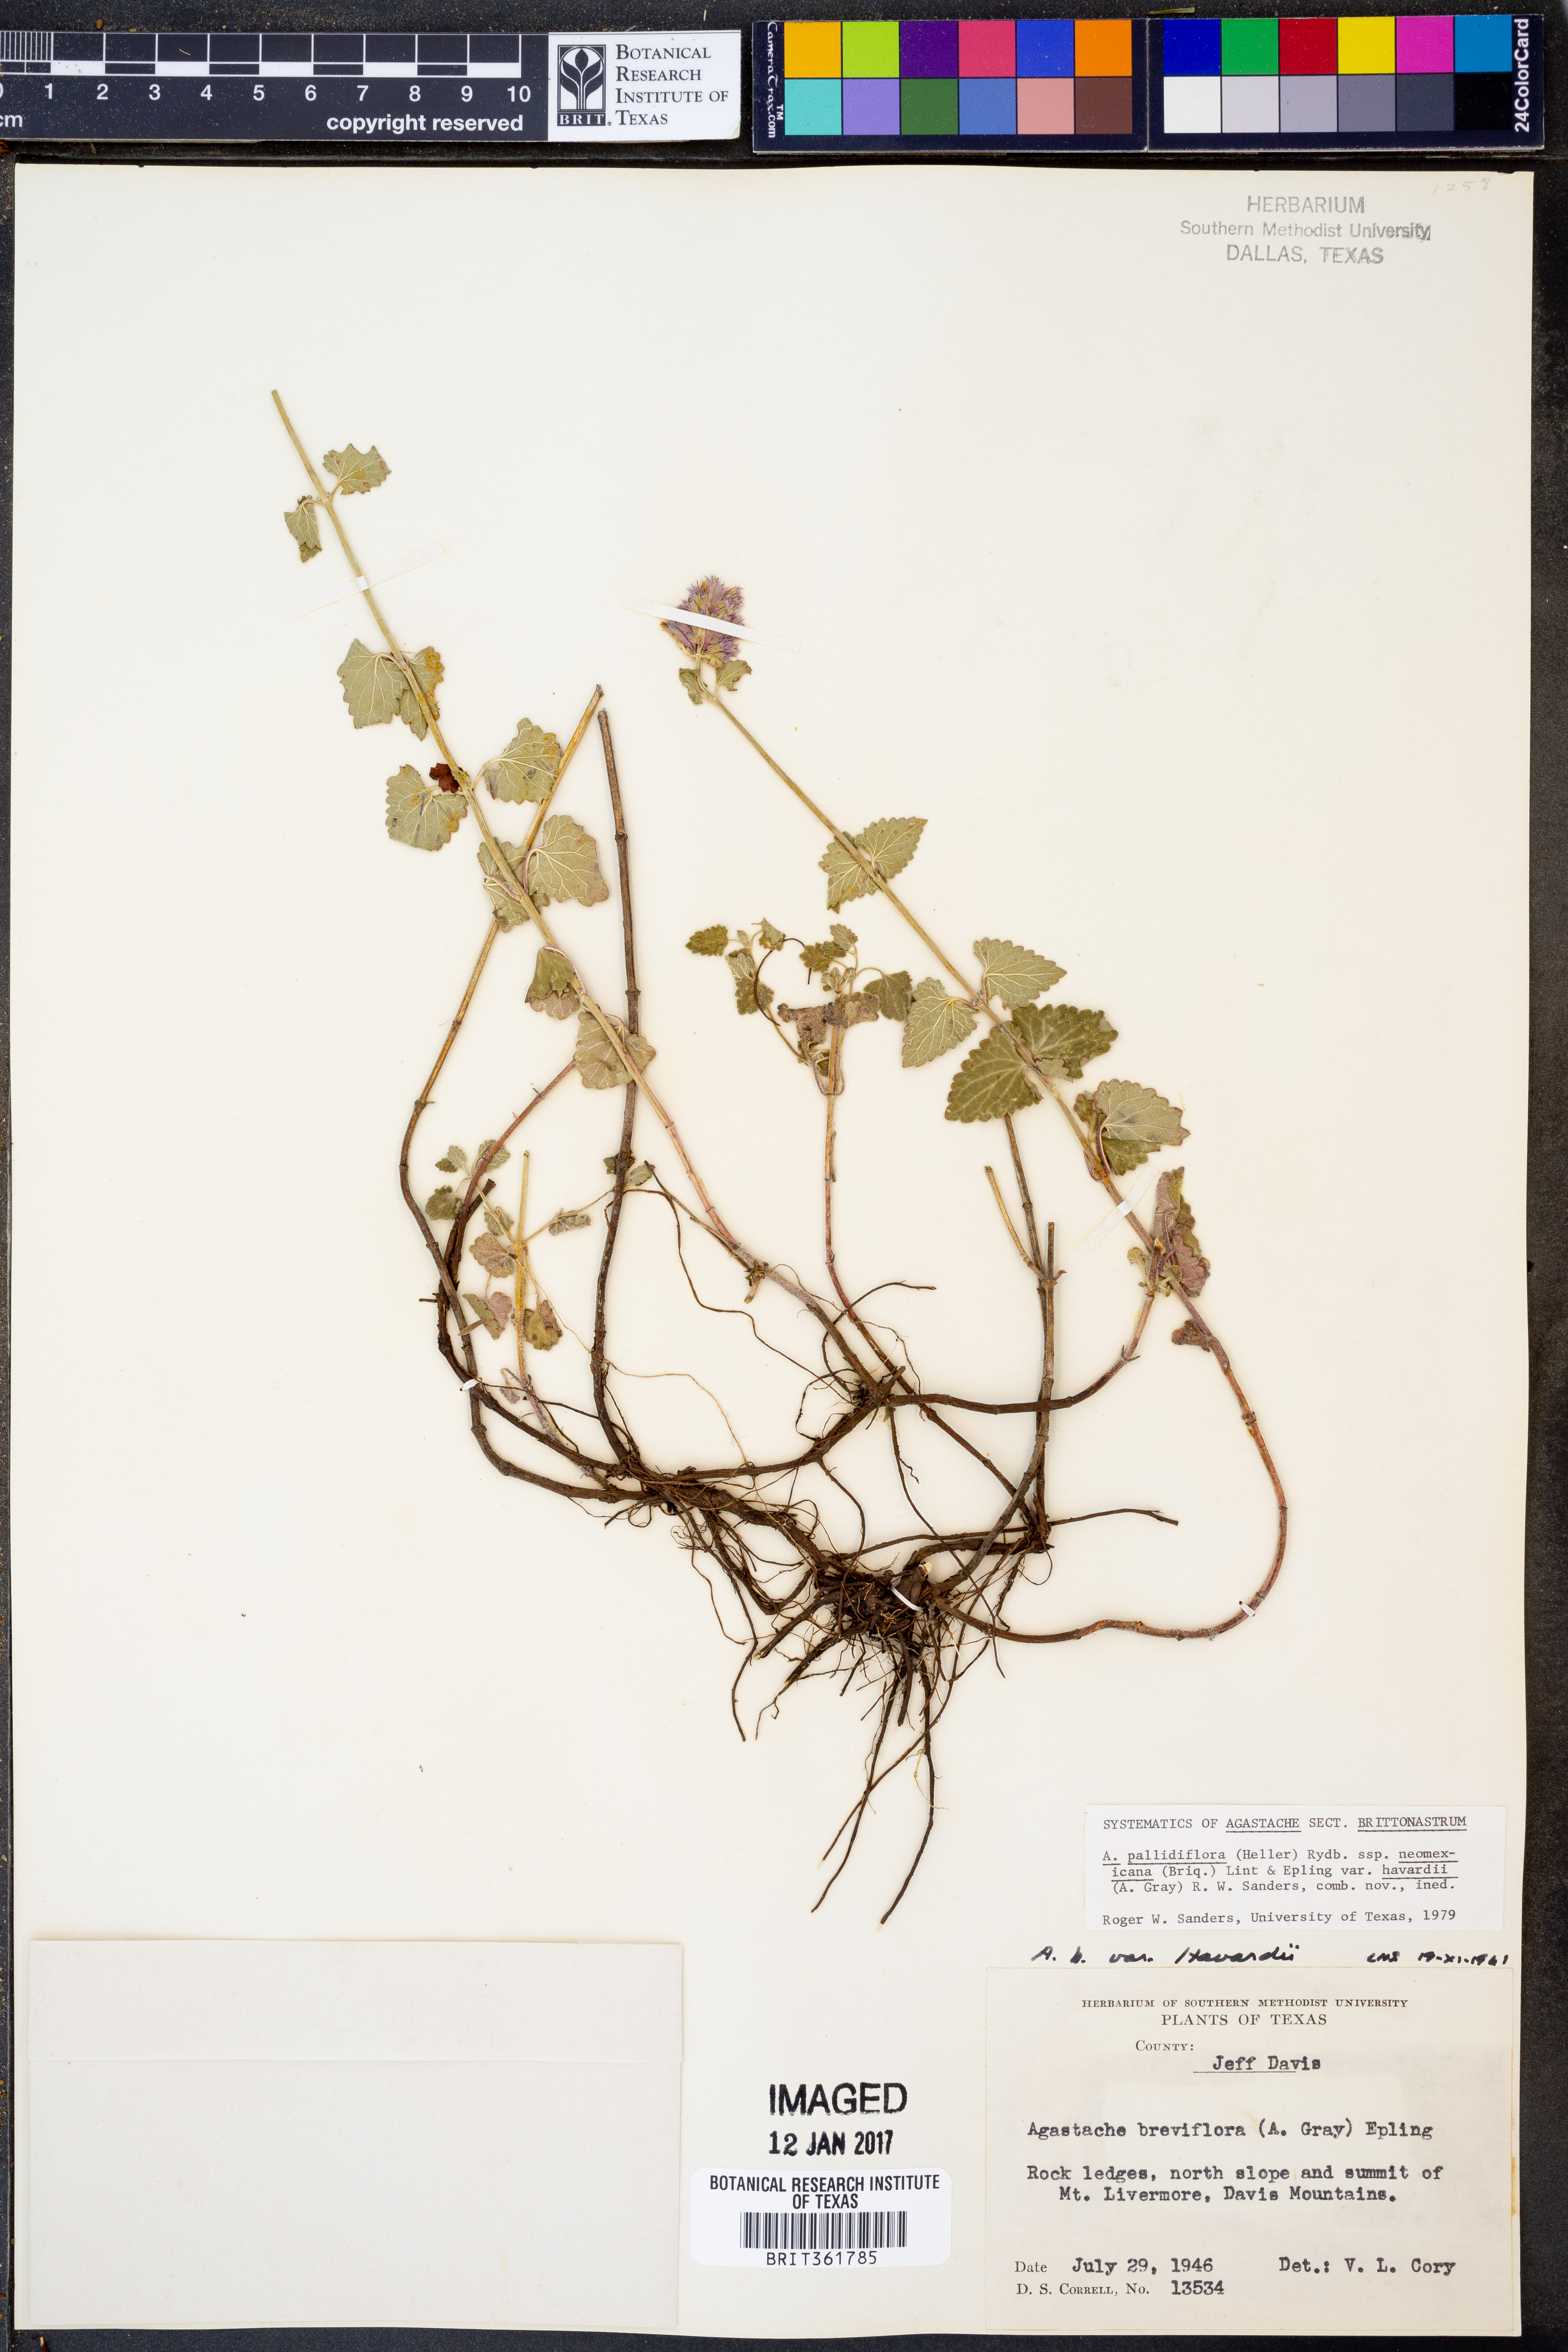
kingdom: Plantae
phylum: Tracheophyta
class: Magnoliopsida
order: Lamiales
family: Lamiaceae
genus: Agastache
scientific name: Agastache pallidiflora
